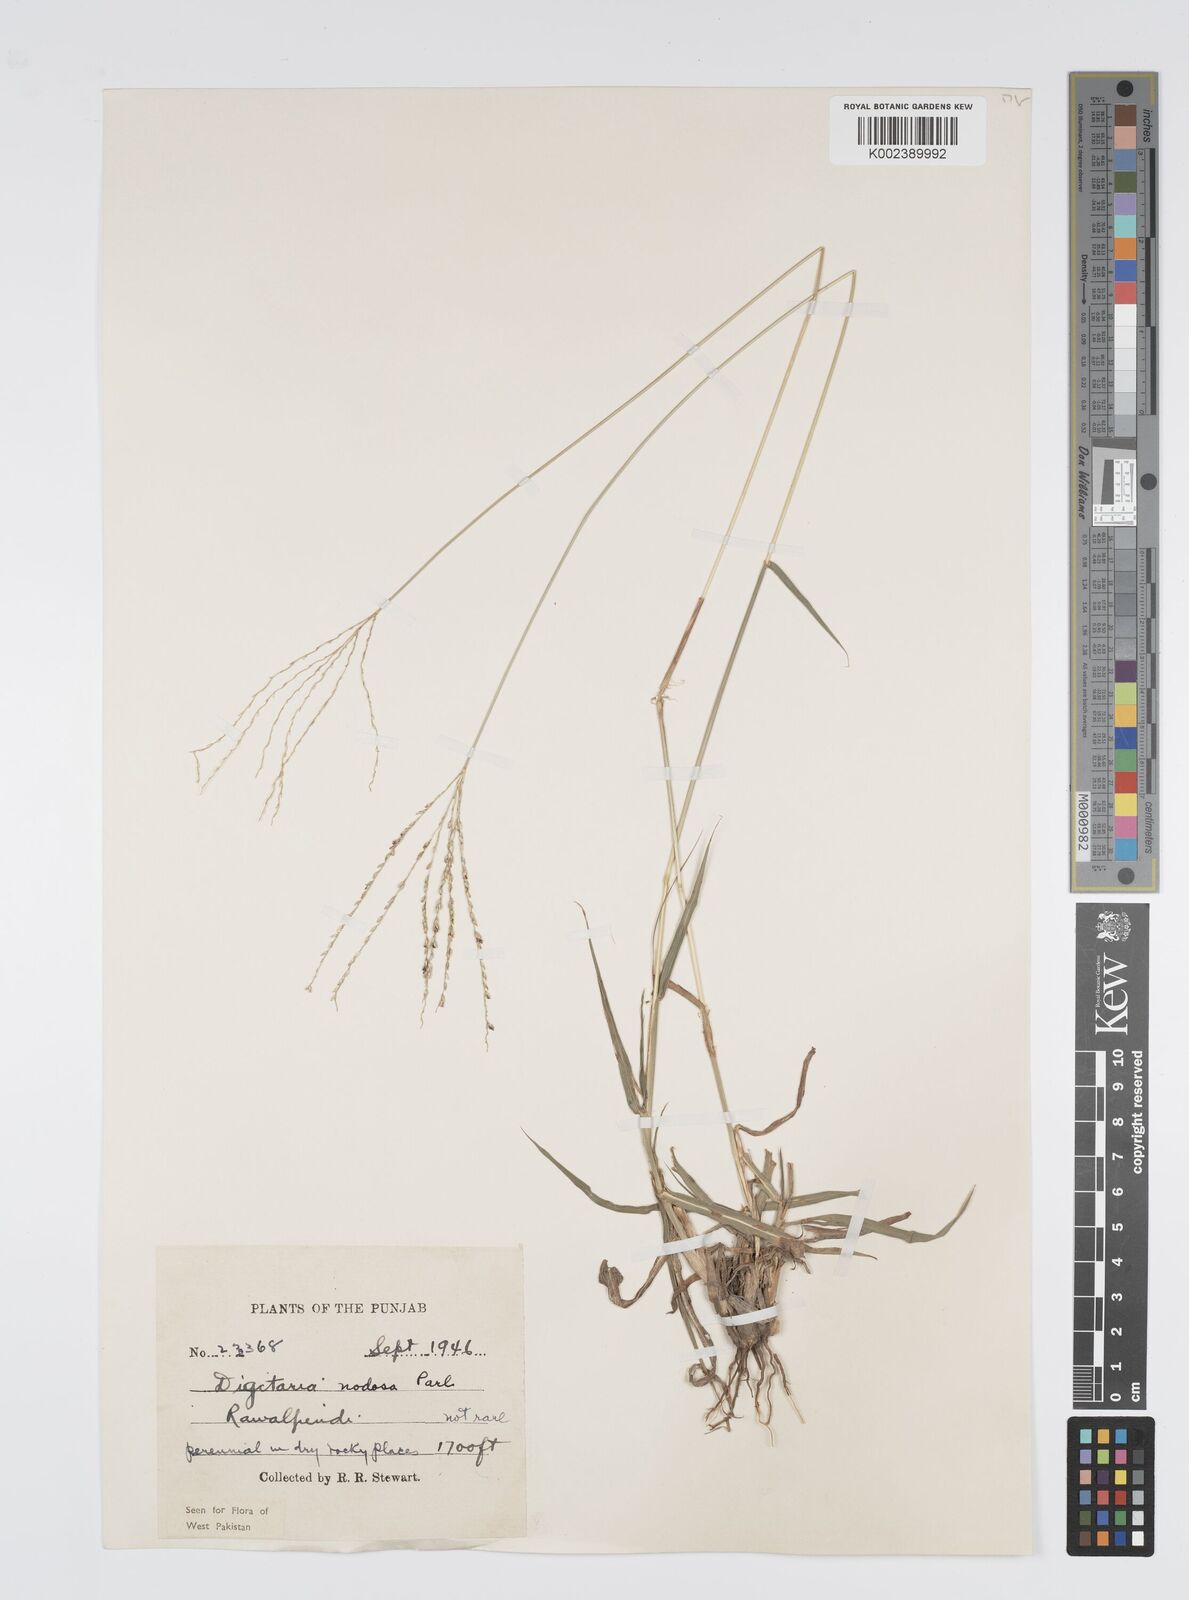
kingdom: Plantae
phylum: Tracheophyta
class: Liliopsida
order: Poales
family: Poaceae
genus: Digitaria
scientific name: Digitaria nodosa
